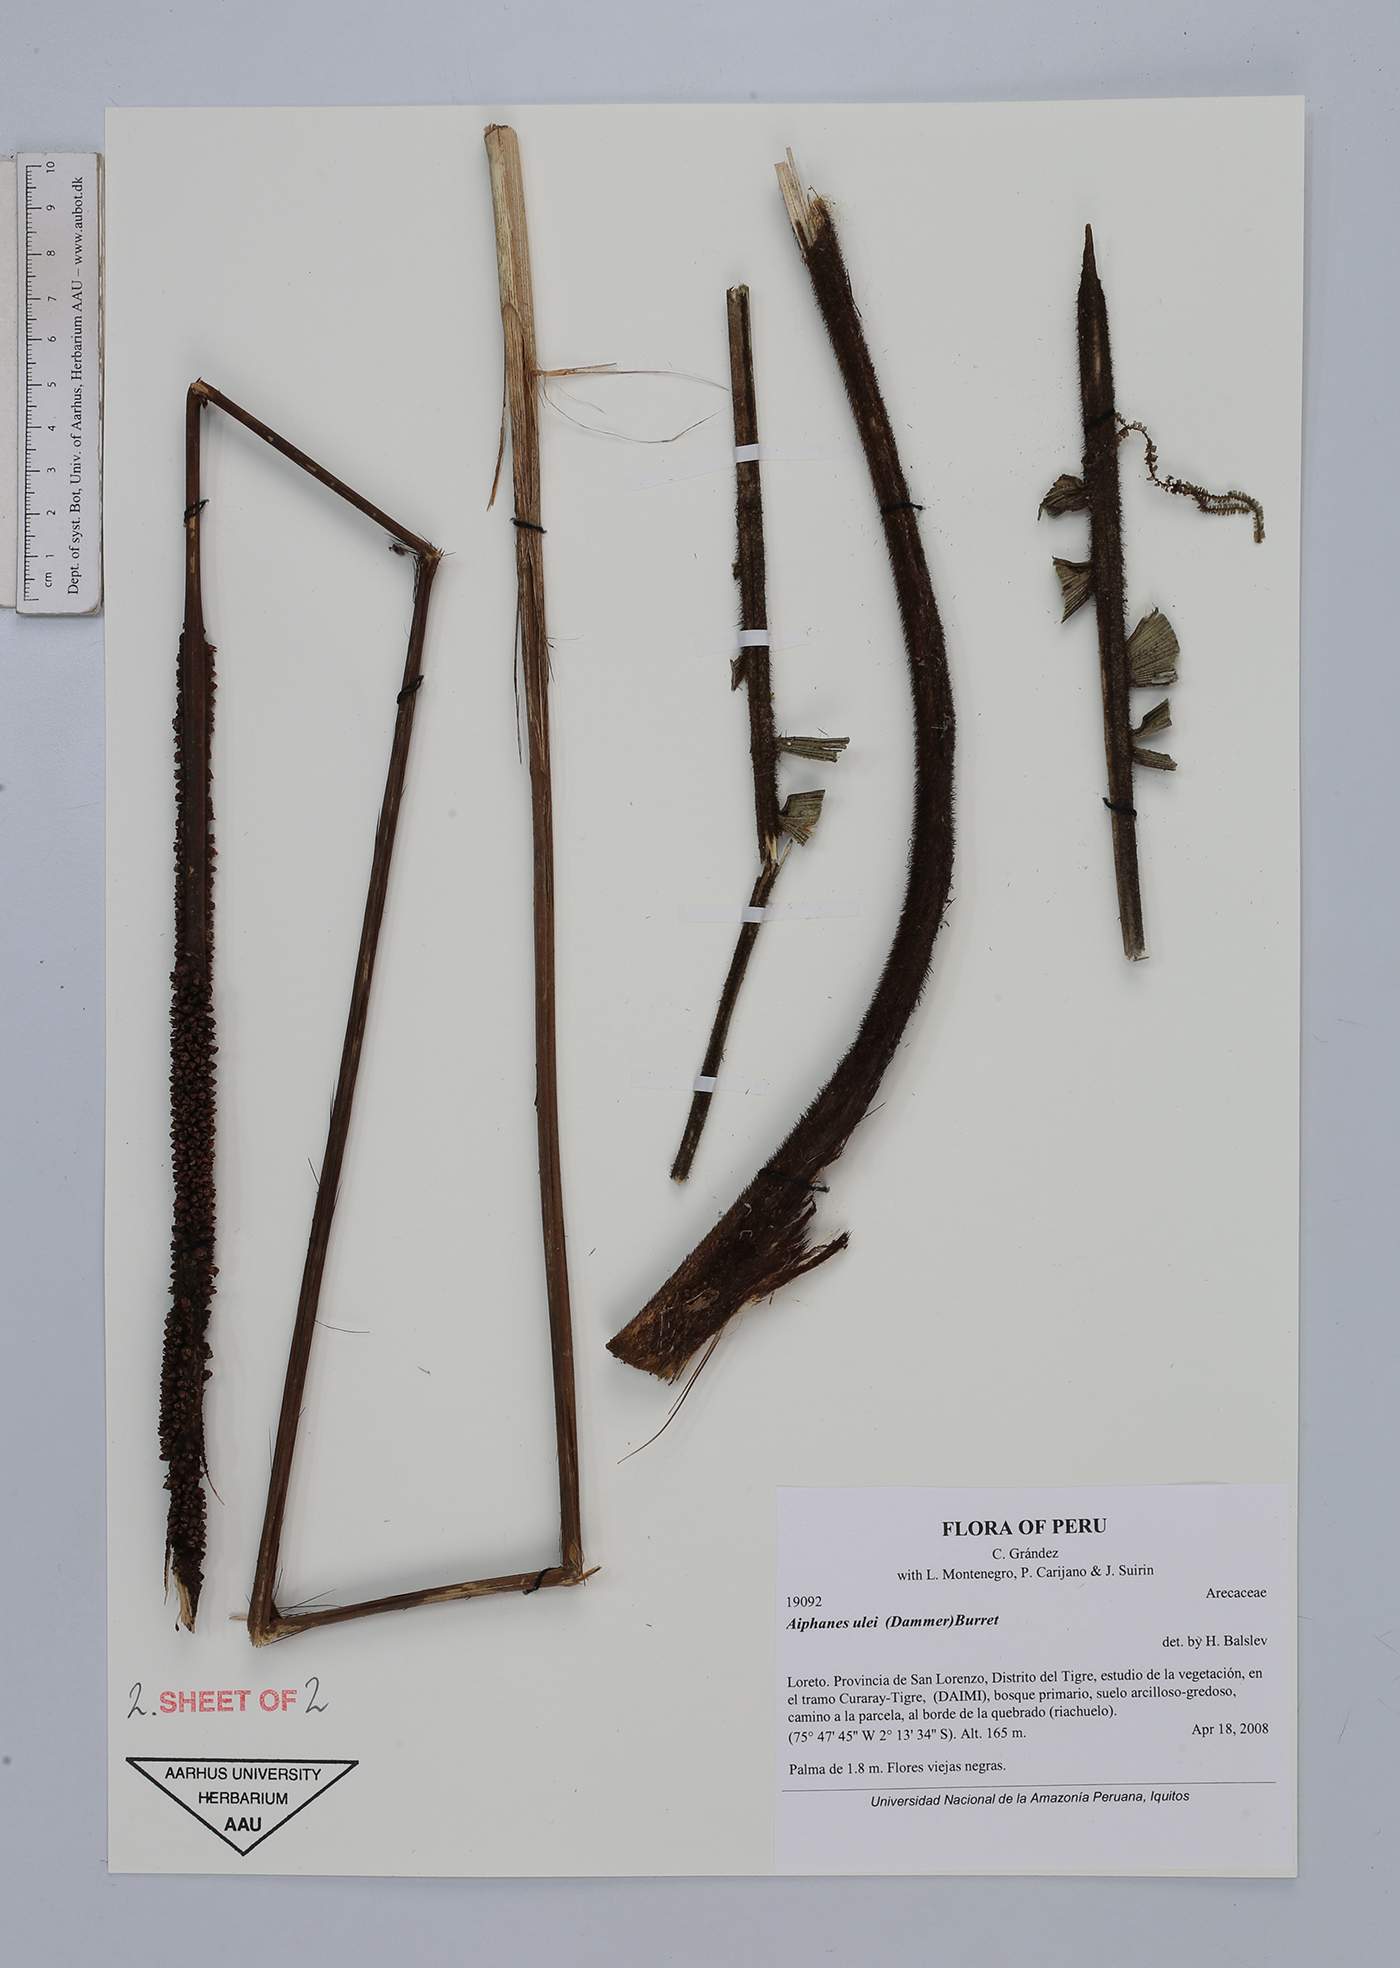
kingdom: Plantae
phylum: Tracheophyta
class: Liliopsida
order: Arecales
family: Arecaceae
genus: Aiphanes
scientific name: Aiphanes ulei
